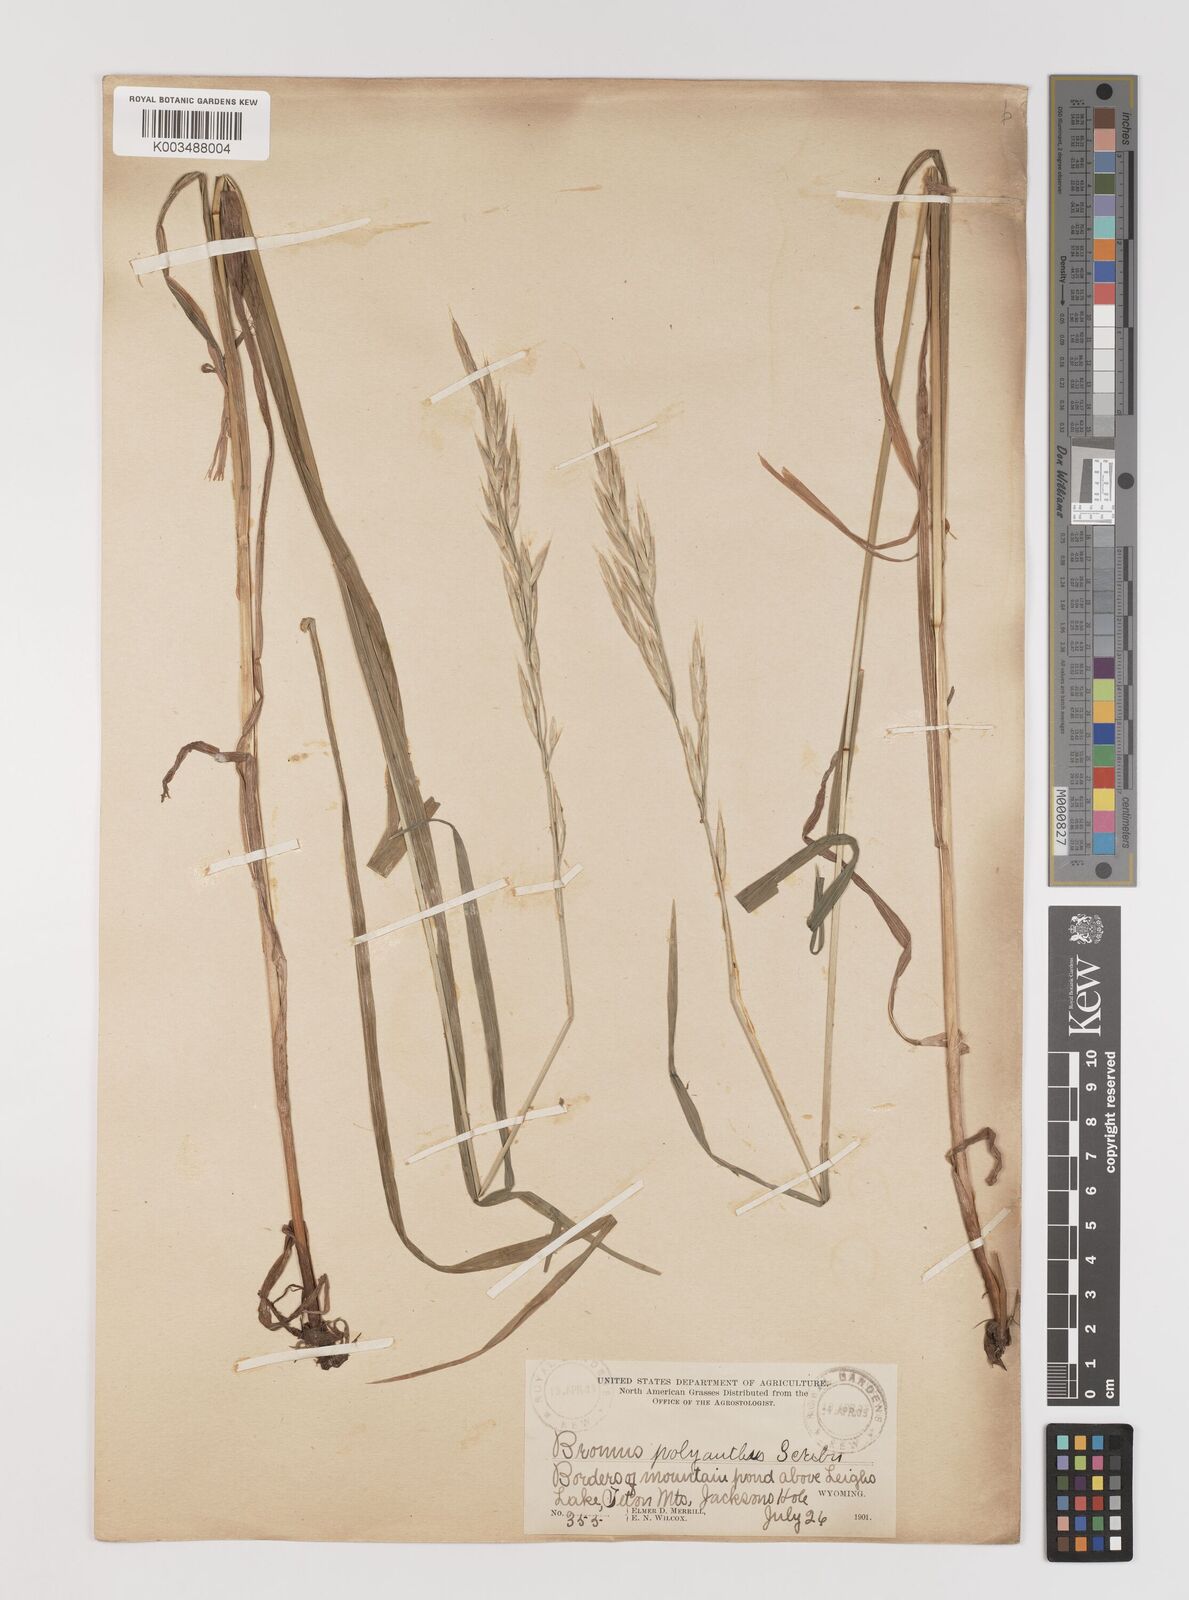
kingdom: Plantae
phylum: Tracheophyta
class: Liliopsida
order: Poales
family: Poaceae
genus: Bromus
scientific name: Bromus polyanthus
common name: Great basin brome
